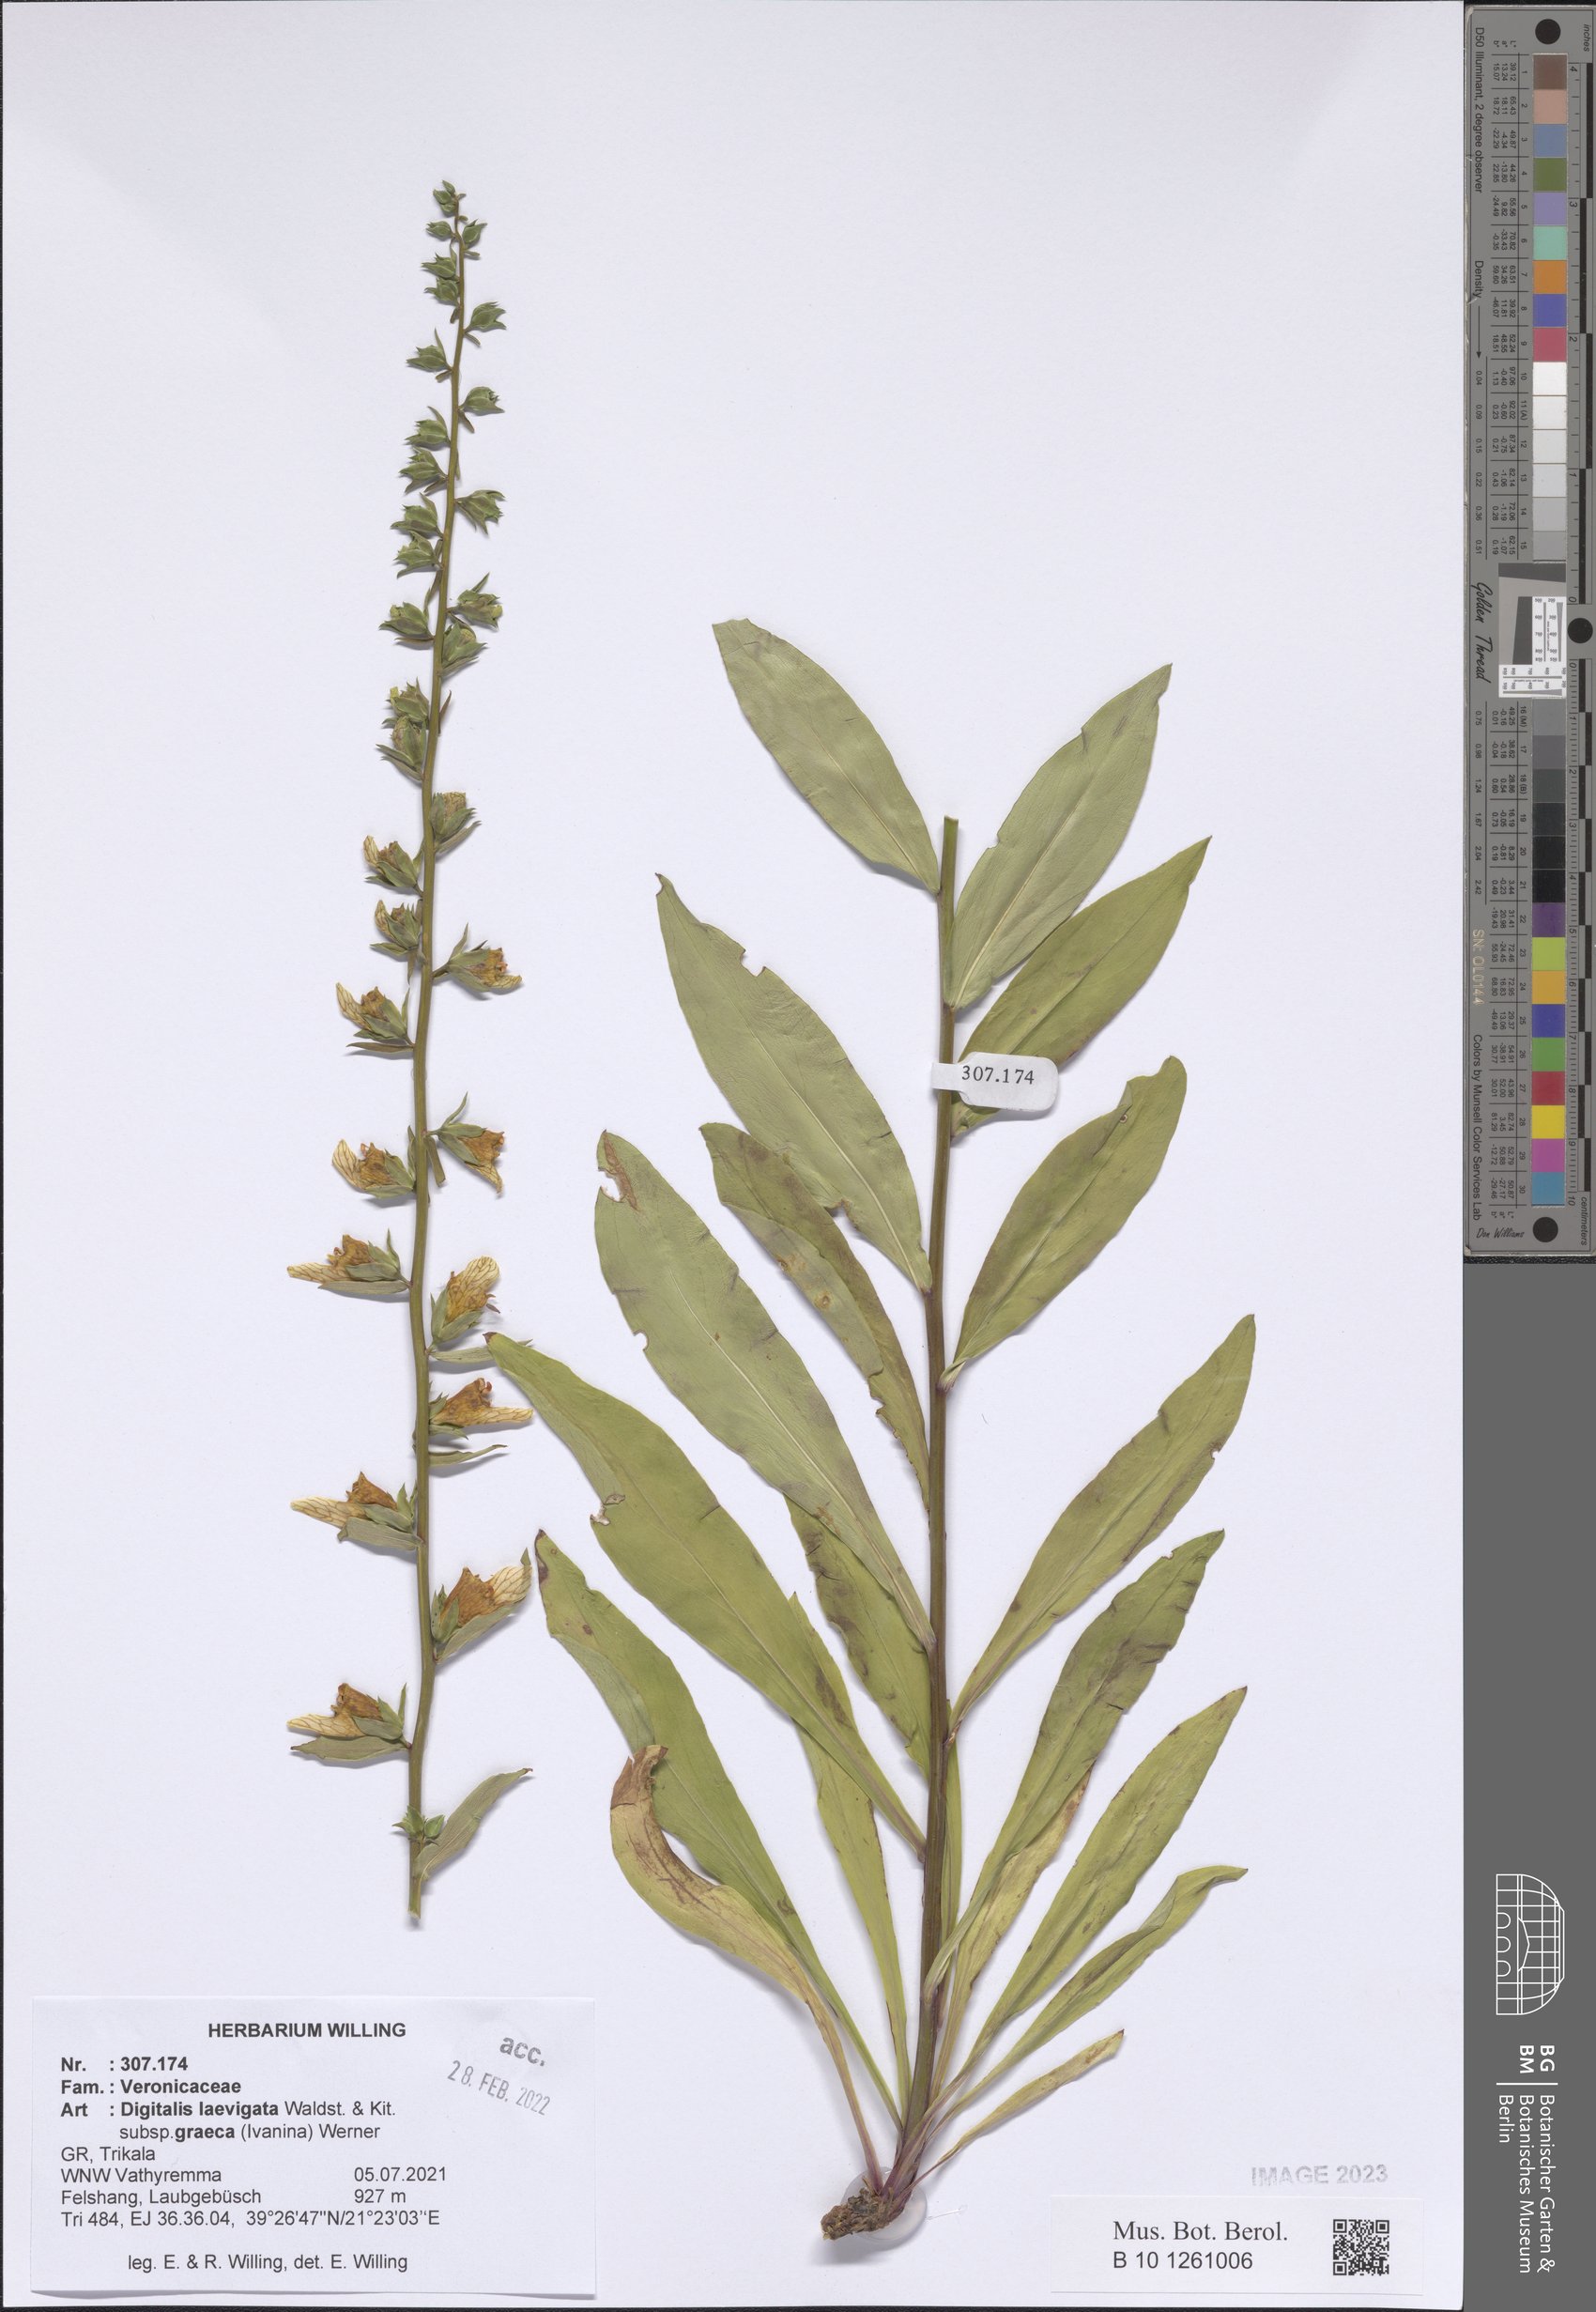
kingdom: Plantae
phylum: Tracheophyta
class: Magnoliopsida
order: Lamiales
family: Plantaginaceae
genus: Digitalis
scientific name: Digitalis laevigata
